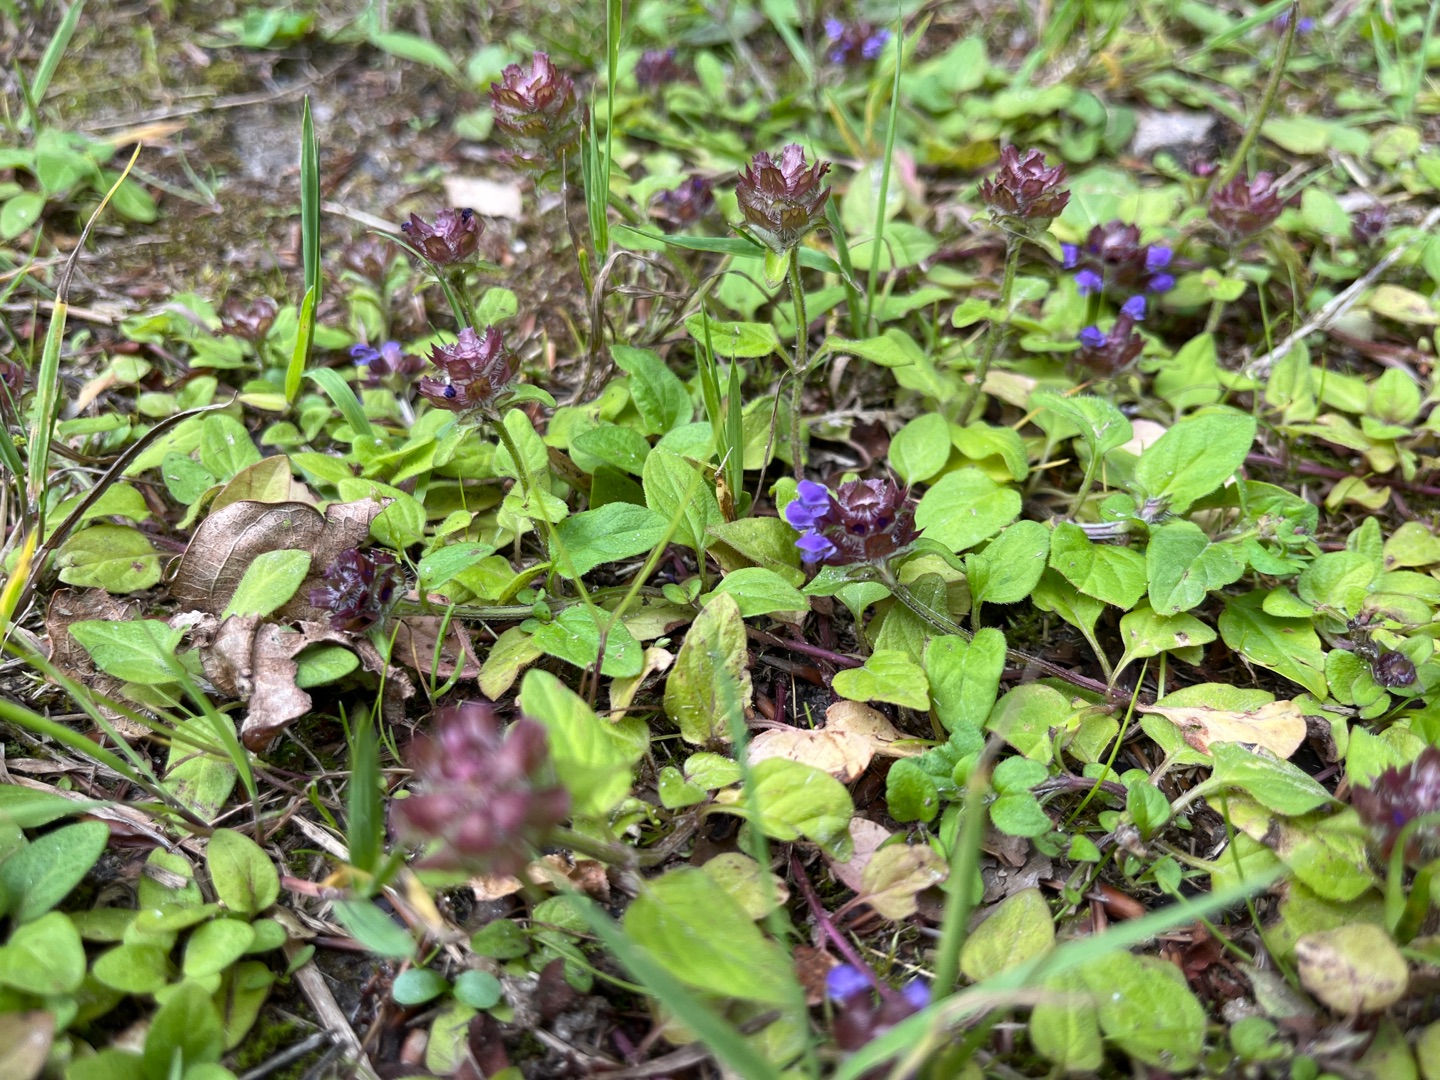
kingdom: Plantae
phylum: Tracheophyta
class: Magnoliopsida
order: Lamiales
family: Lamiaceae
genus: Prunella
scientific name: Prunella vulgaris
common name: Almindelig brunelle
